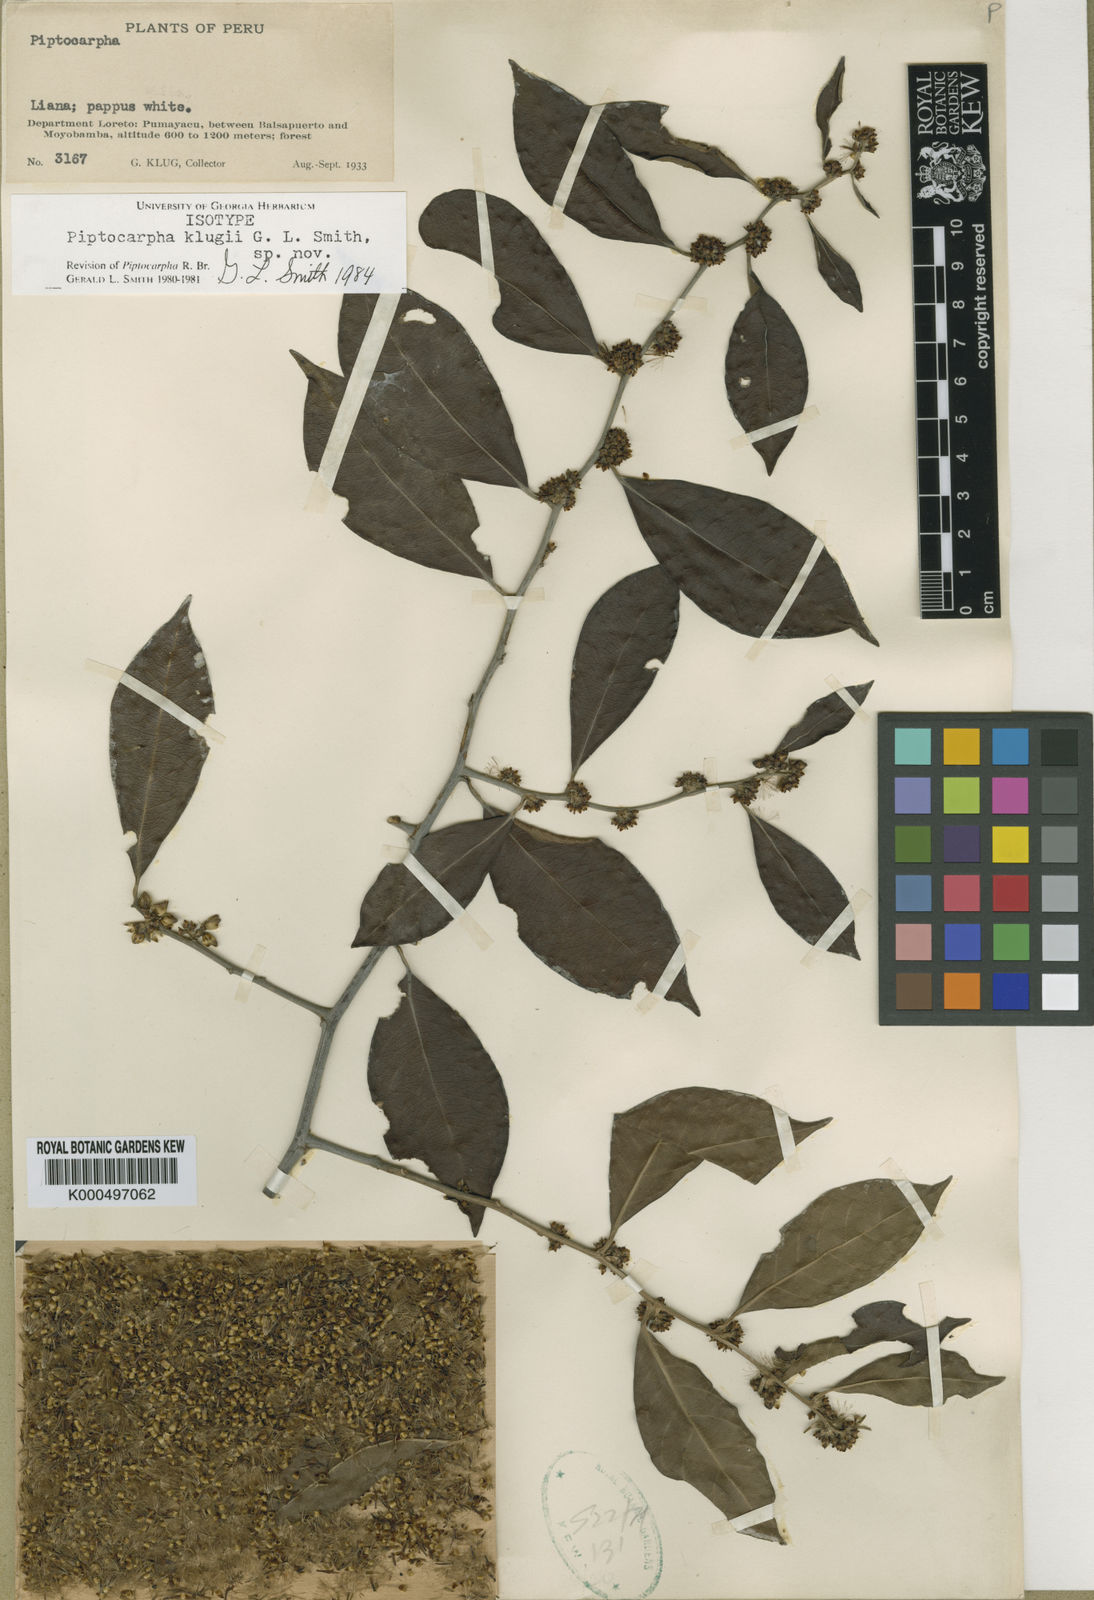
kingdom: Plantae
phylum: Tracheophyta
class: Magnoliopsida
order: Asterales
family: Asteraceae
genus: Piptocarpha
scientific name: Piptocarpha klugii
